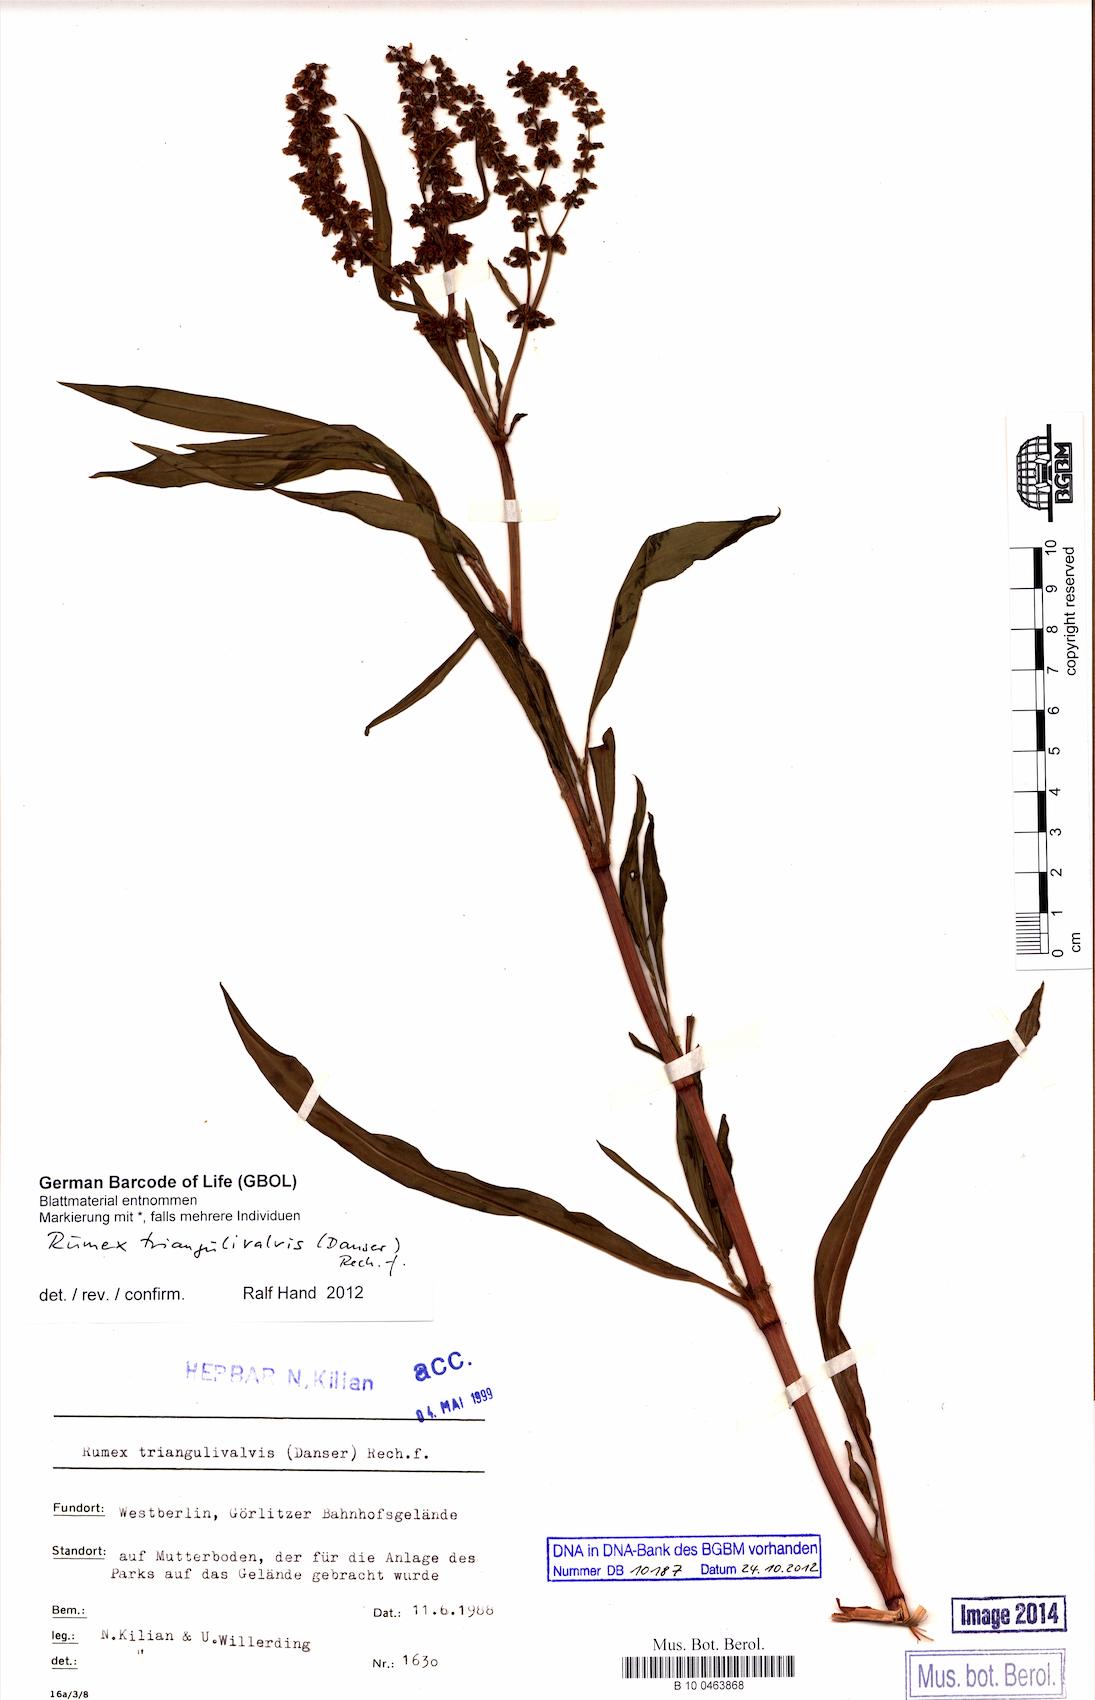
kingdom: Plantae
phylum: Tracheophyta
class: Magnoliopsida
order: Caryophyllales
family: Polygonaceae
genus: Rumex
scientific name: Rumex triangulivalvis
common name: Triangular-valve dock
